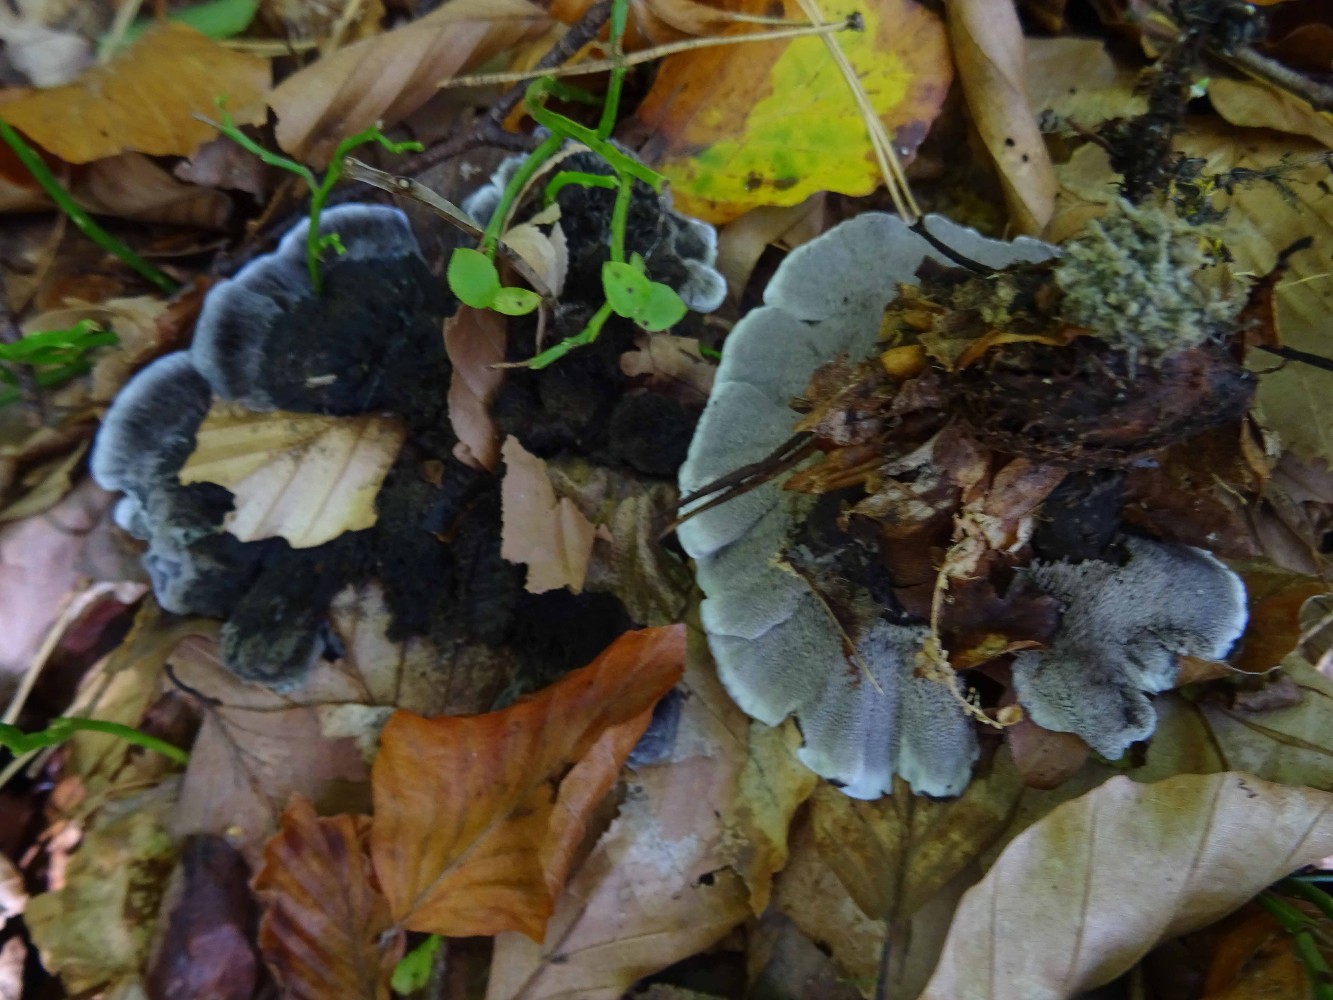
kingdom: Fungi
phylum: Basidiomycota
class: Agaricomycetes
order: Thelephorales
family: Thelephoraceae
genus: Phellodon
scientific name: Phellodon
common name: mørk duftpigsvamp
